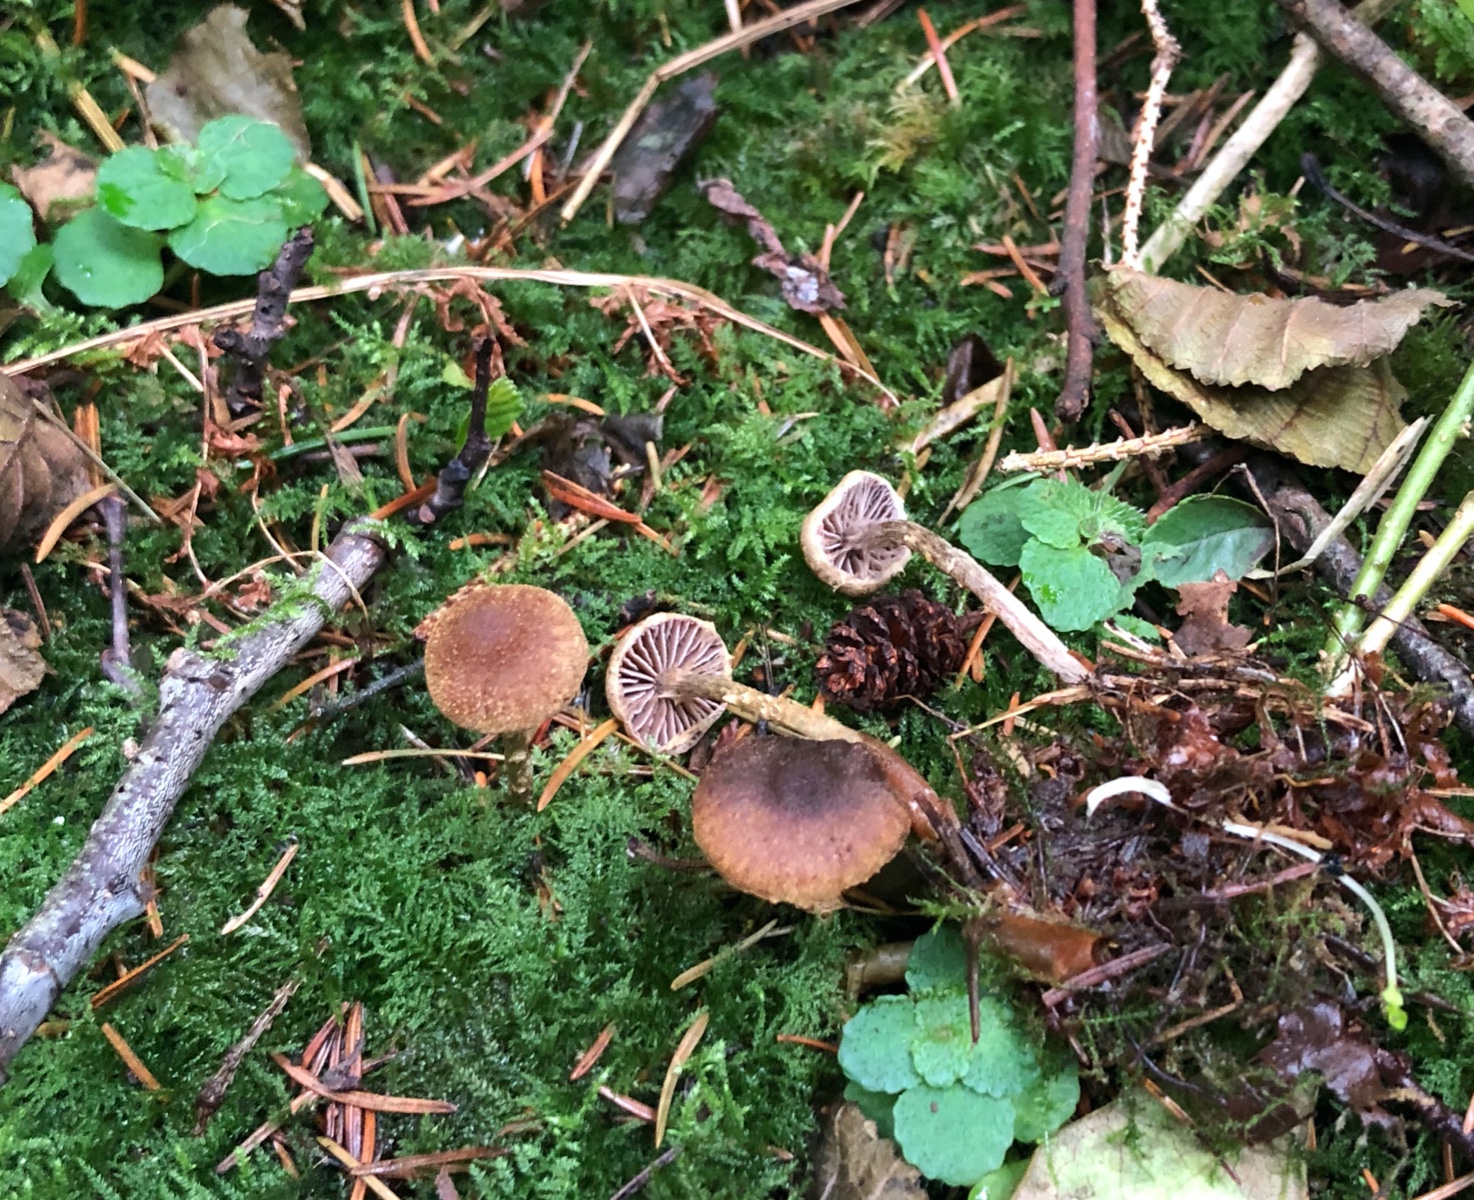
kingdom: Fungi
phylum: Basidiomycota
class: Agaricomycetes
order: Agaricales
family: Cortinariaceae
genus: Cortinarius
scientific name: Cortinarius helvelloides
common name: fjernbladet slørhat
